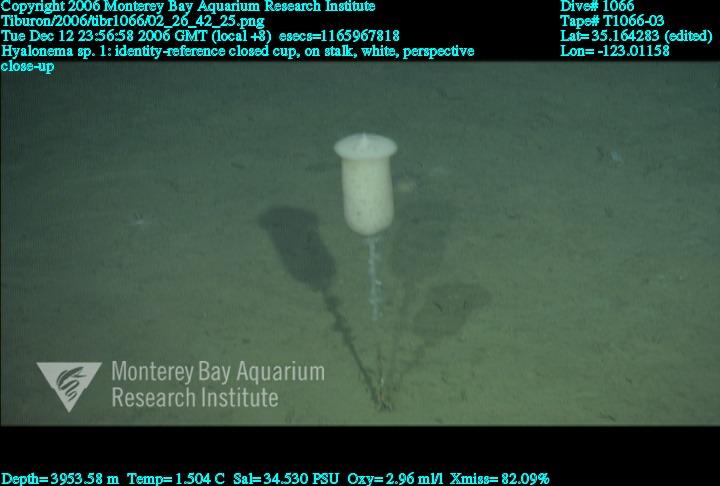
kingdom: Animalia
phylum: Porifera
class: Hexactinellida
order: Amphidiscosida
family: Hyalonematidae
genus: Hyalonema
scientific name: Hyalonema
